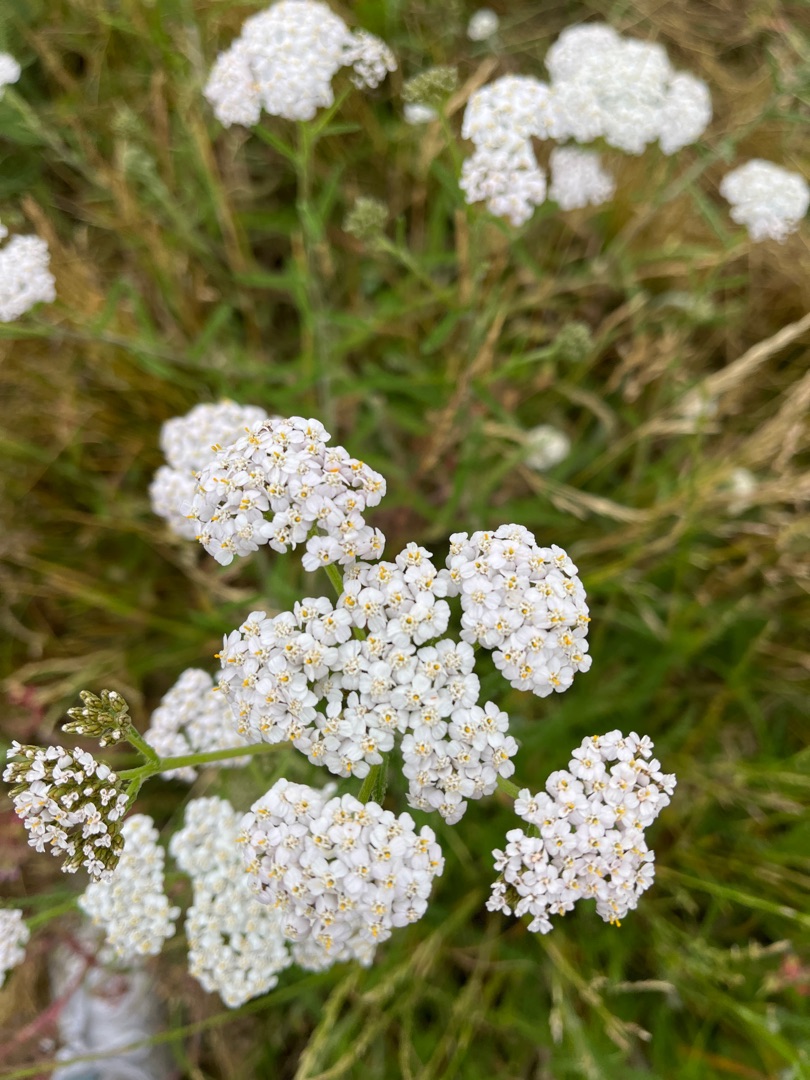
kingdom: Plantae
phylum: Tracheophyta
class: Magnoliopsida
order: Asterales
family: Asteraceae
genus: Achillea
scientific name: Achillea millefolium
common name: Almindelig røllike
